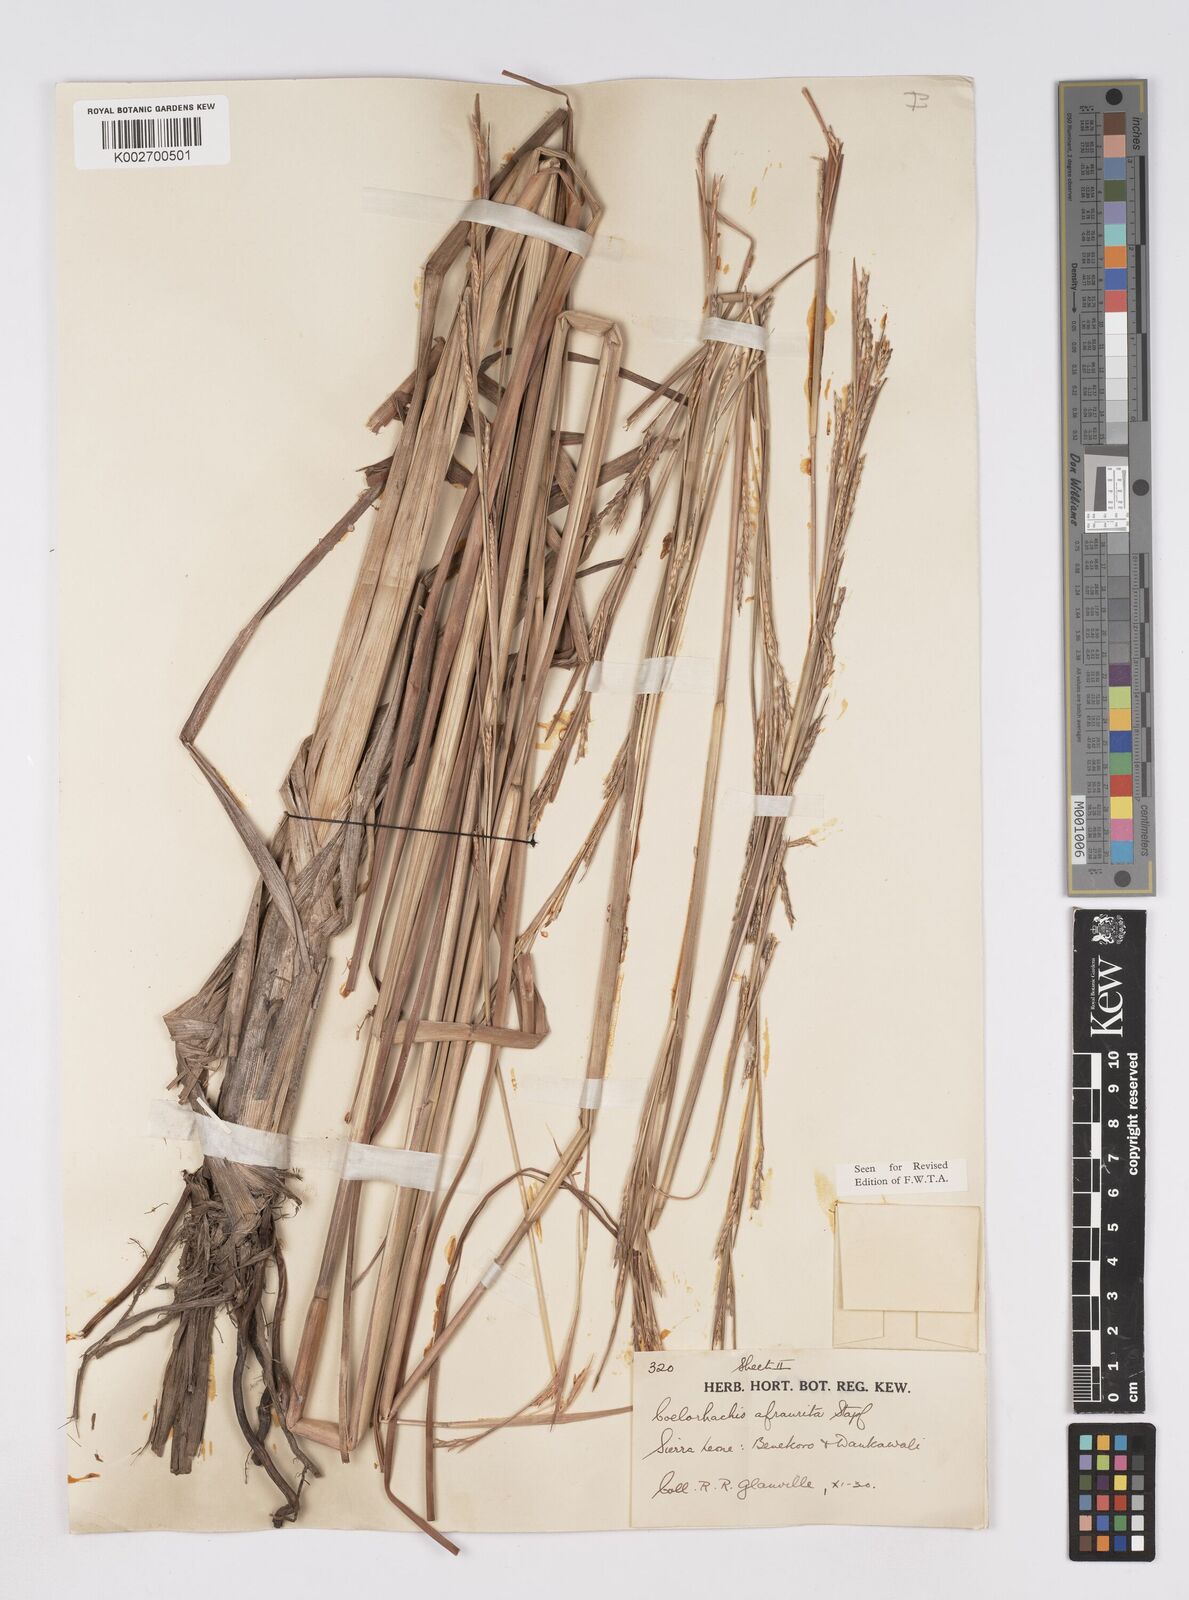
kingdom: Plantae
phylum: Tracheophyta
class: Liliopsida
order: Poales
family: Poaceae
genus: Rottboellia
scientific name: Rottboellia afraurita
